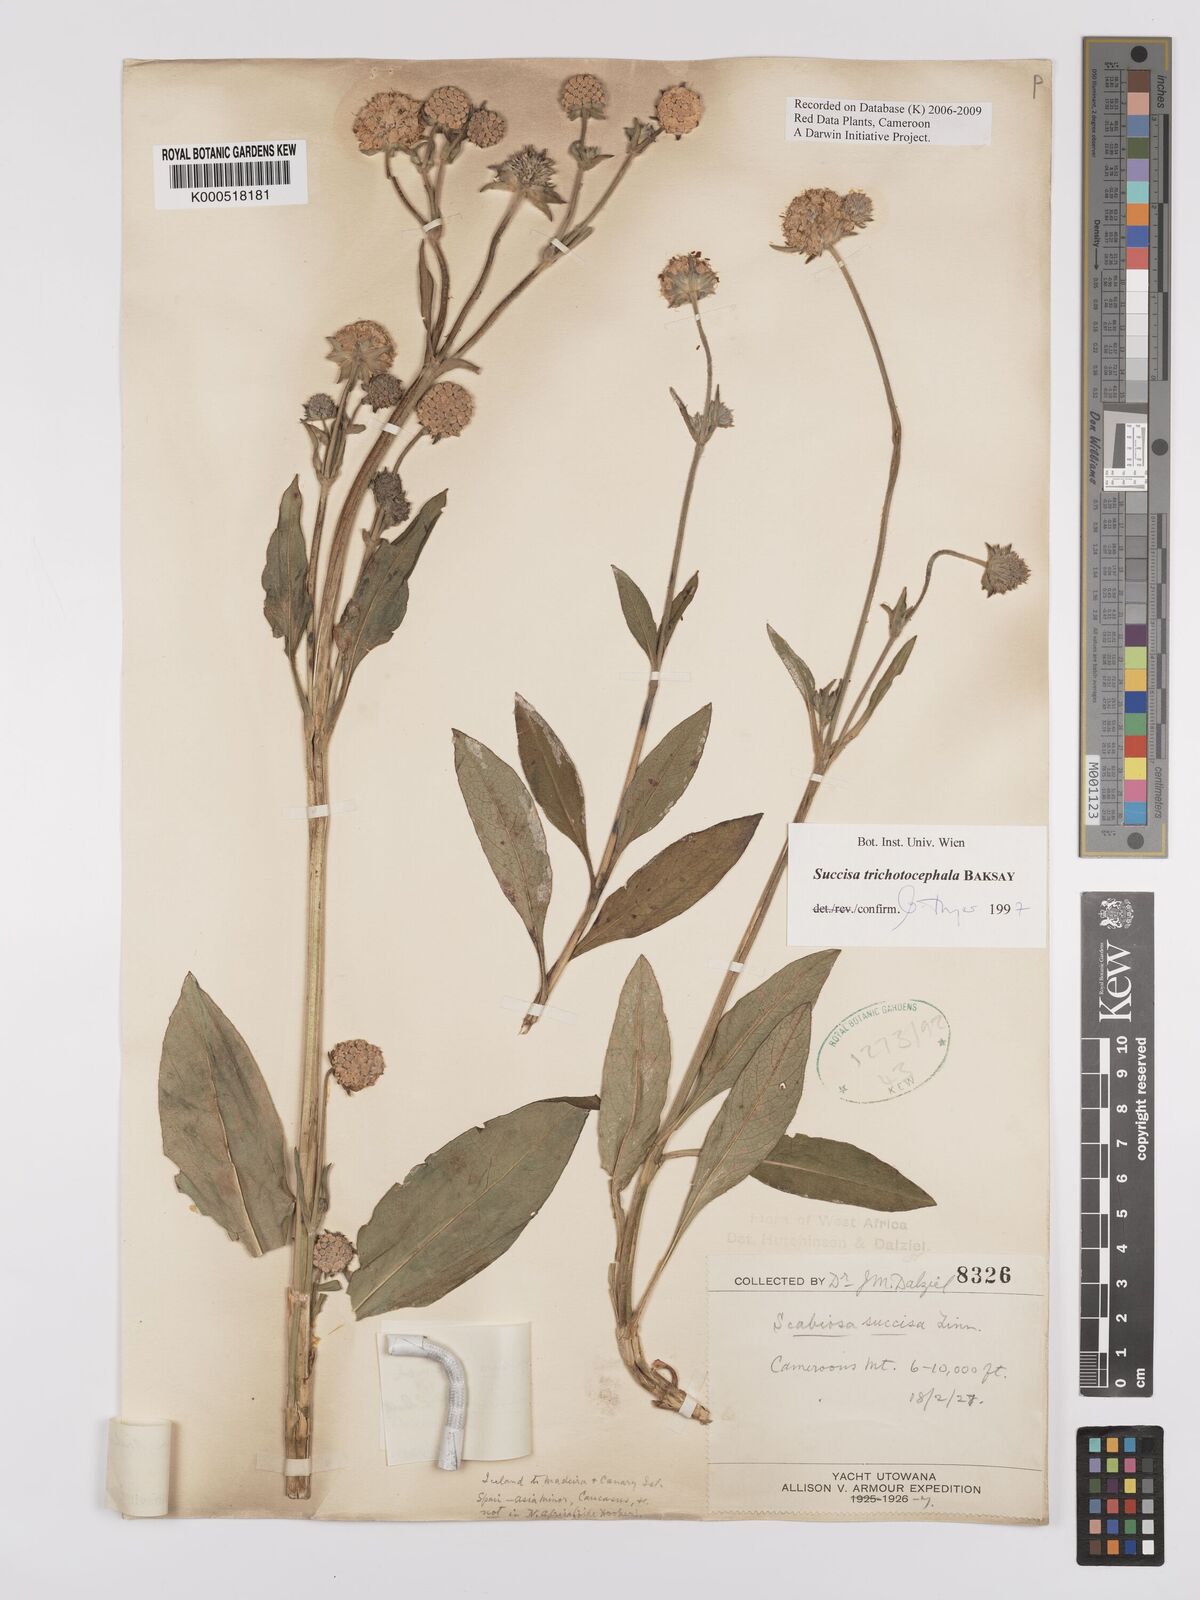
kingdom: Plantae
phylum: Tracheophyta
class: Magnoliopsida
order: Dipsacales
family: Caprifoliaceae
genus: Succisa
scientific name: Succisa trichotocephala
